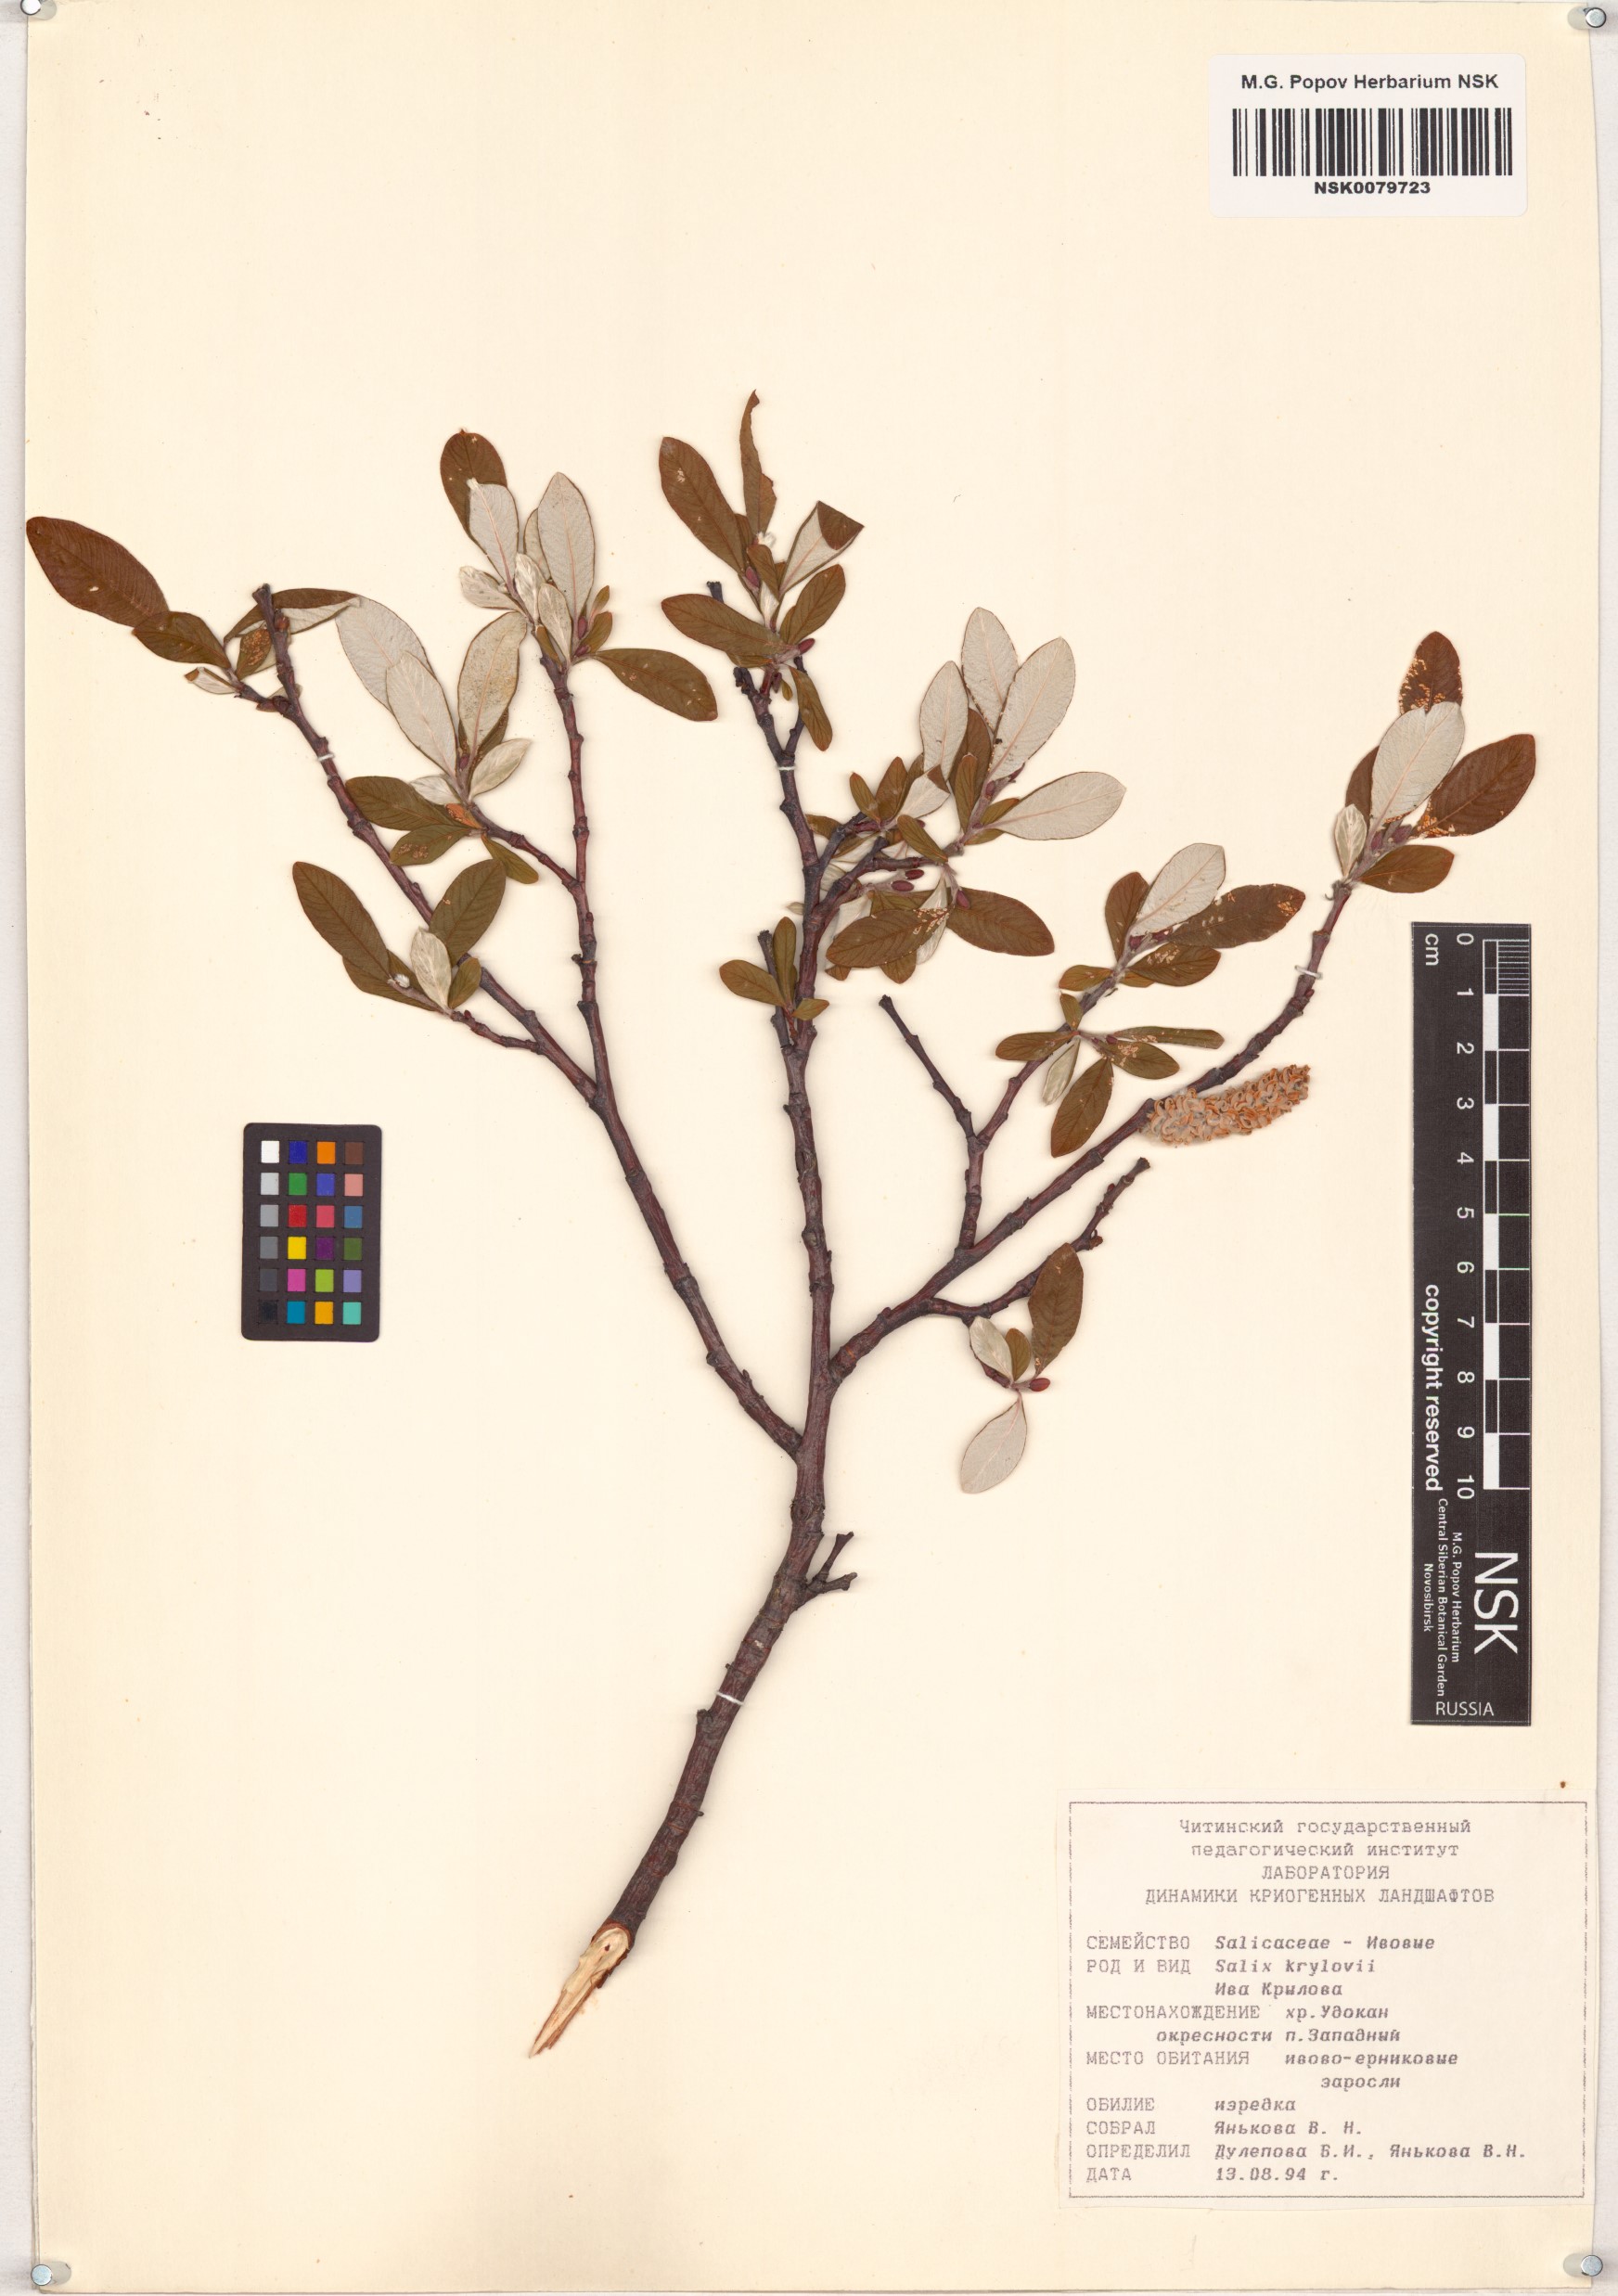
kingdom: Plantae
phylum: Tracheophyta
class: Magnoliopsida
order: Malpighiales
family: Salicaceae
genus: Salix
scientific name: Salix krylovii
